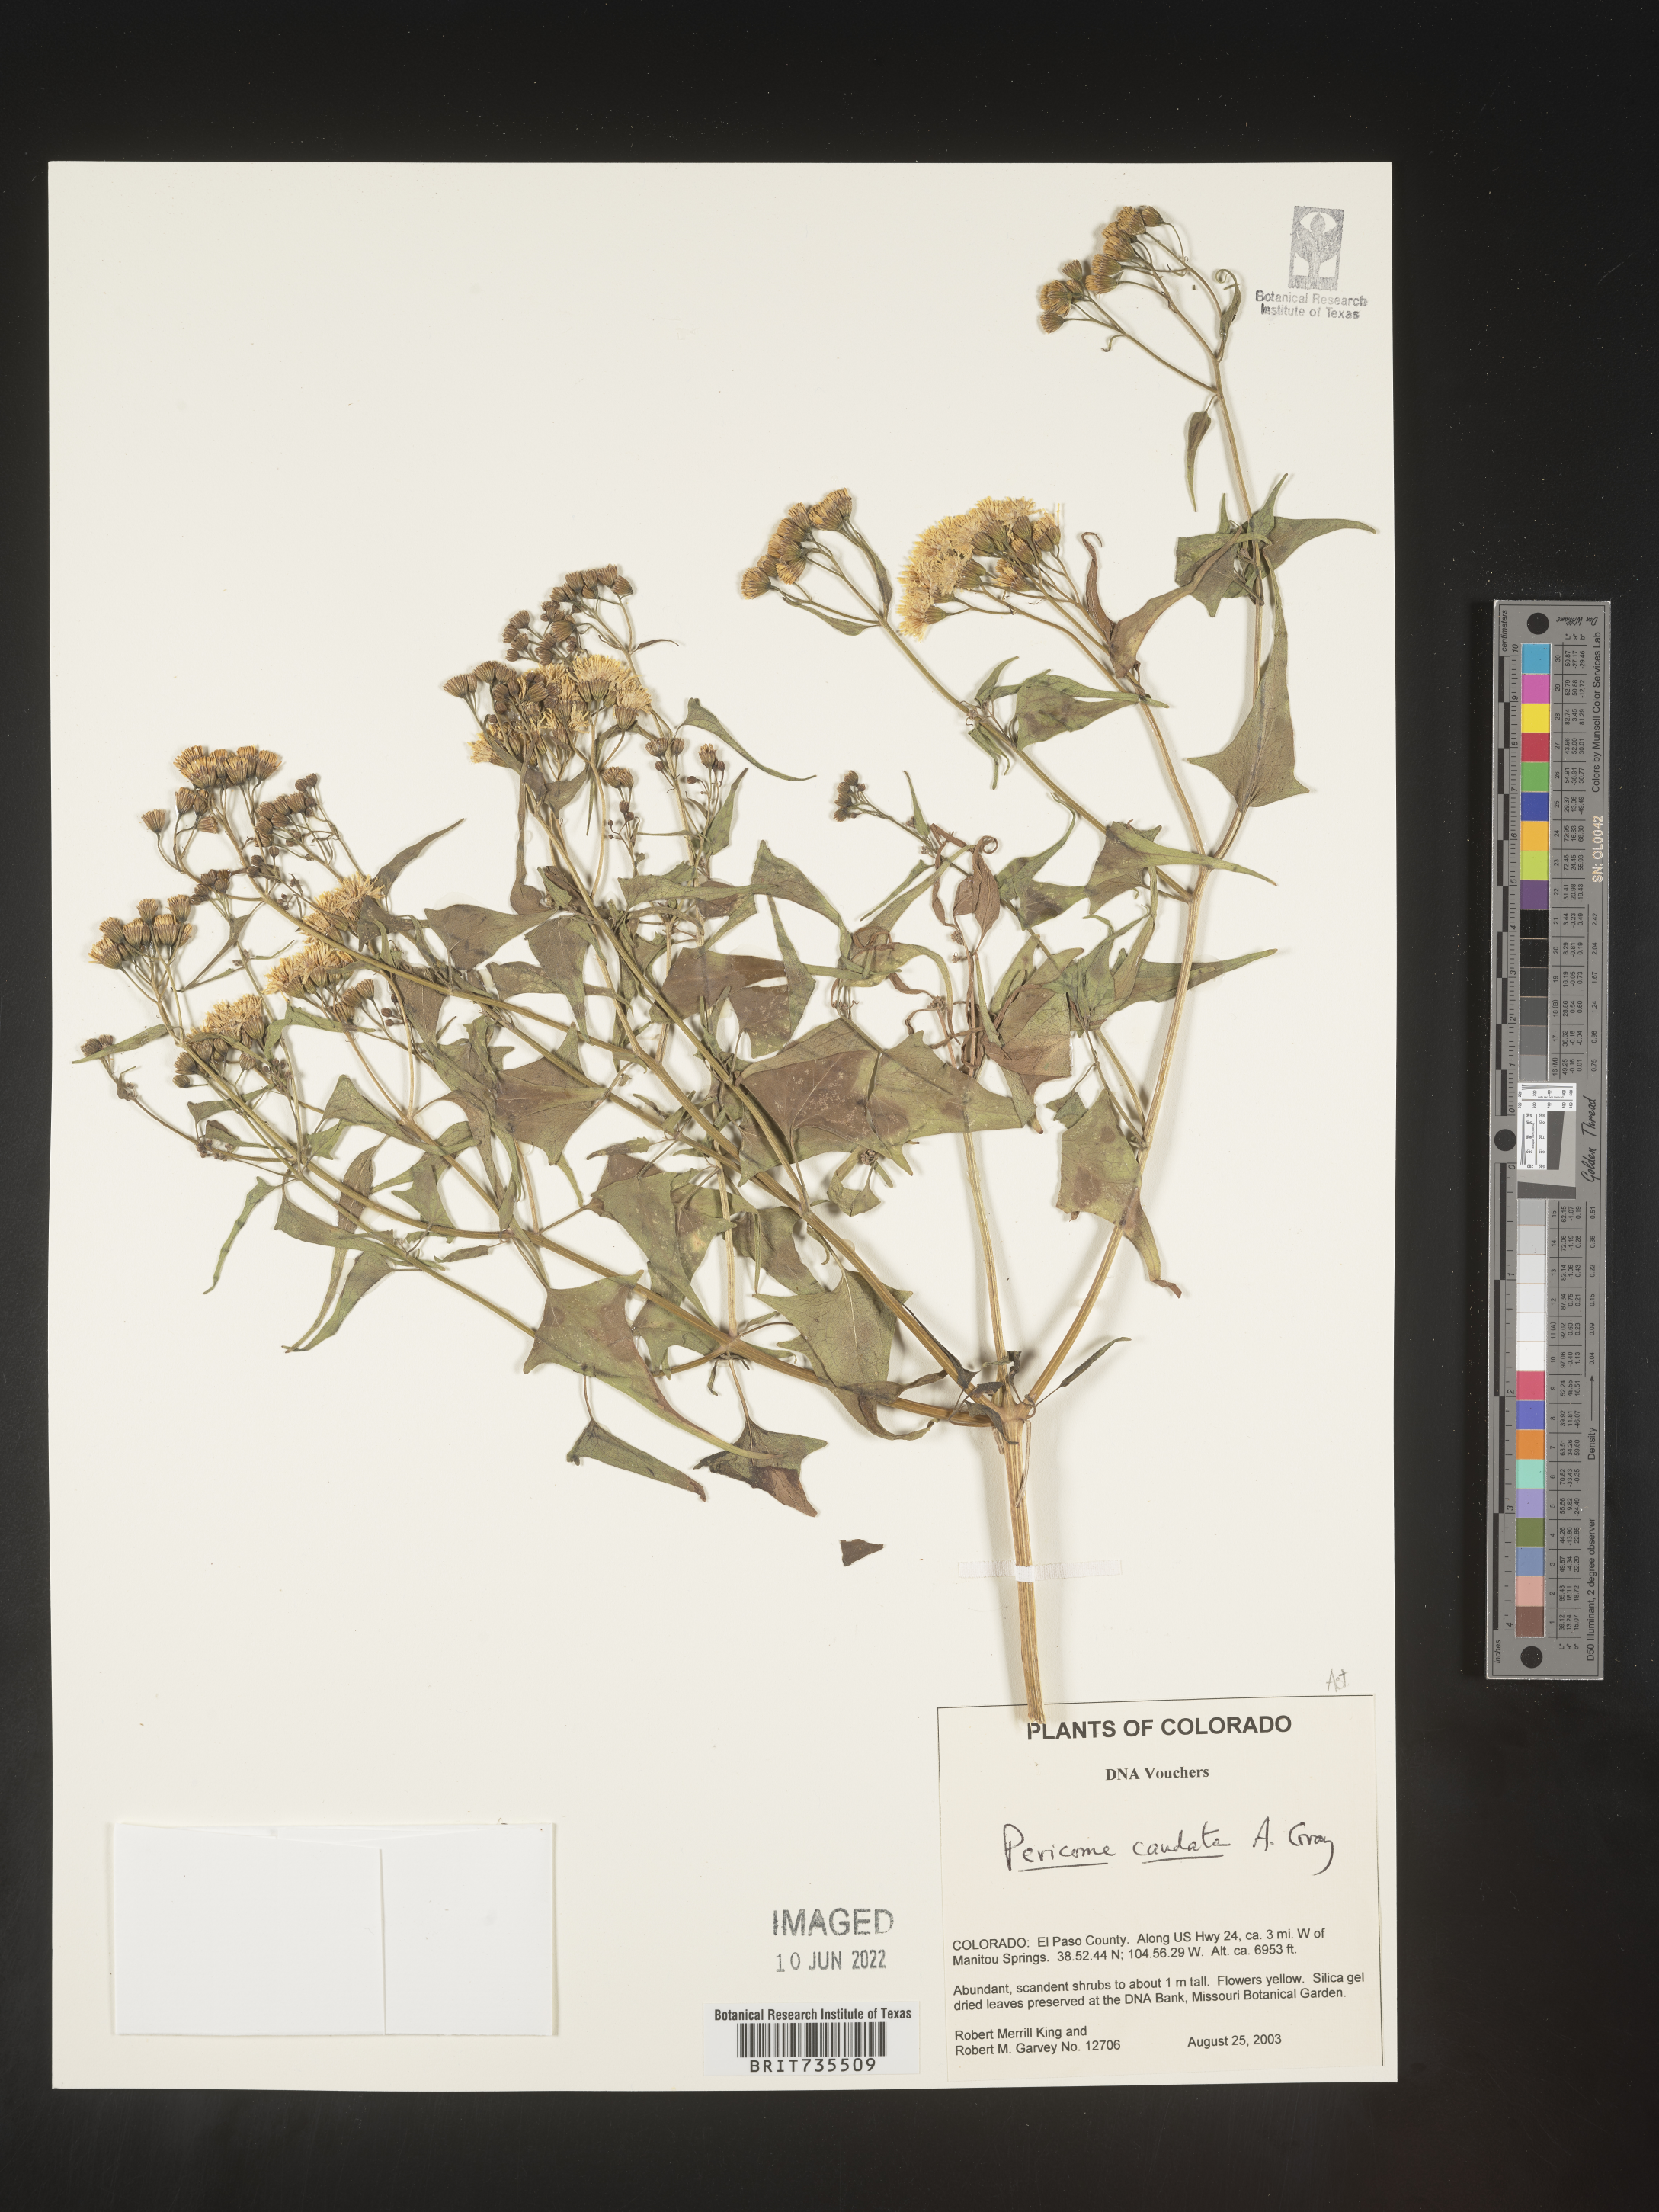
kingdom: Plantae
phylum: Tracheophyta
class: Magnoliopsida
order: Asterales
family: Asteraceae
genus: Pericome
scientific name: Pericome
